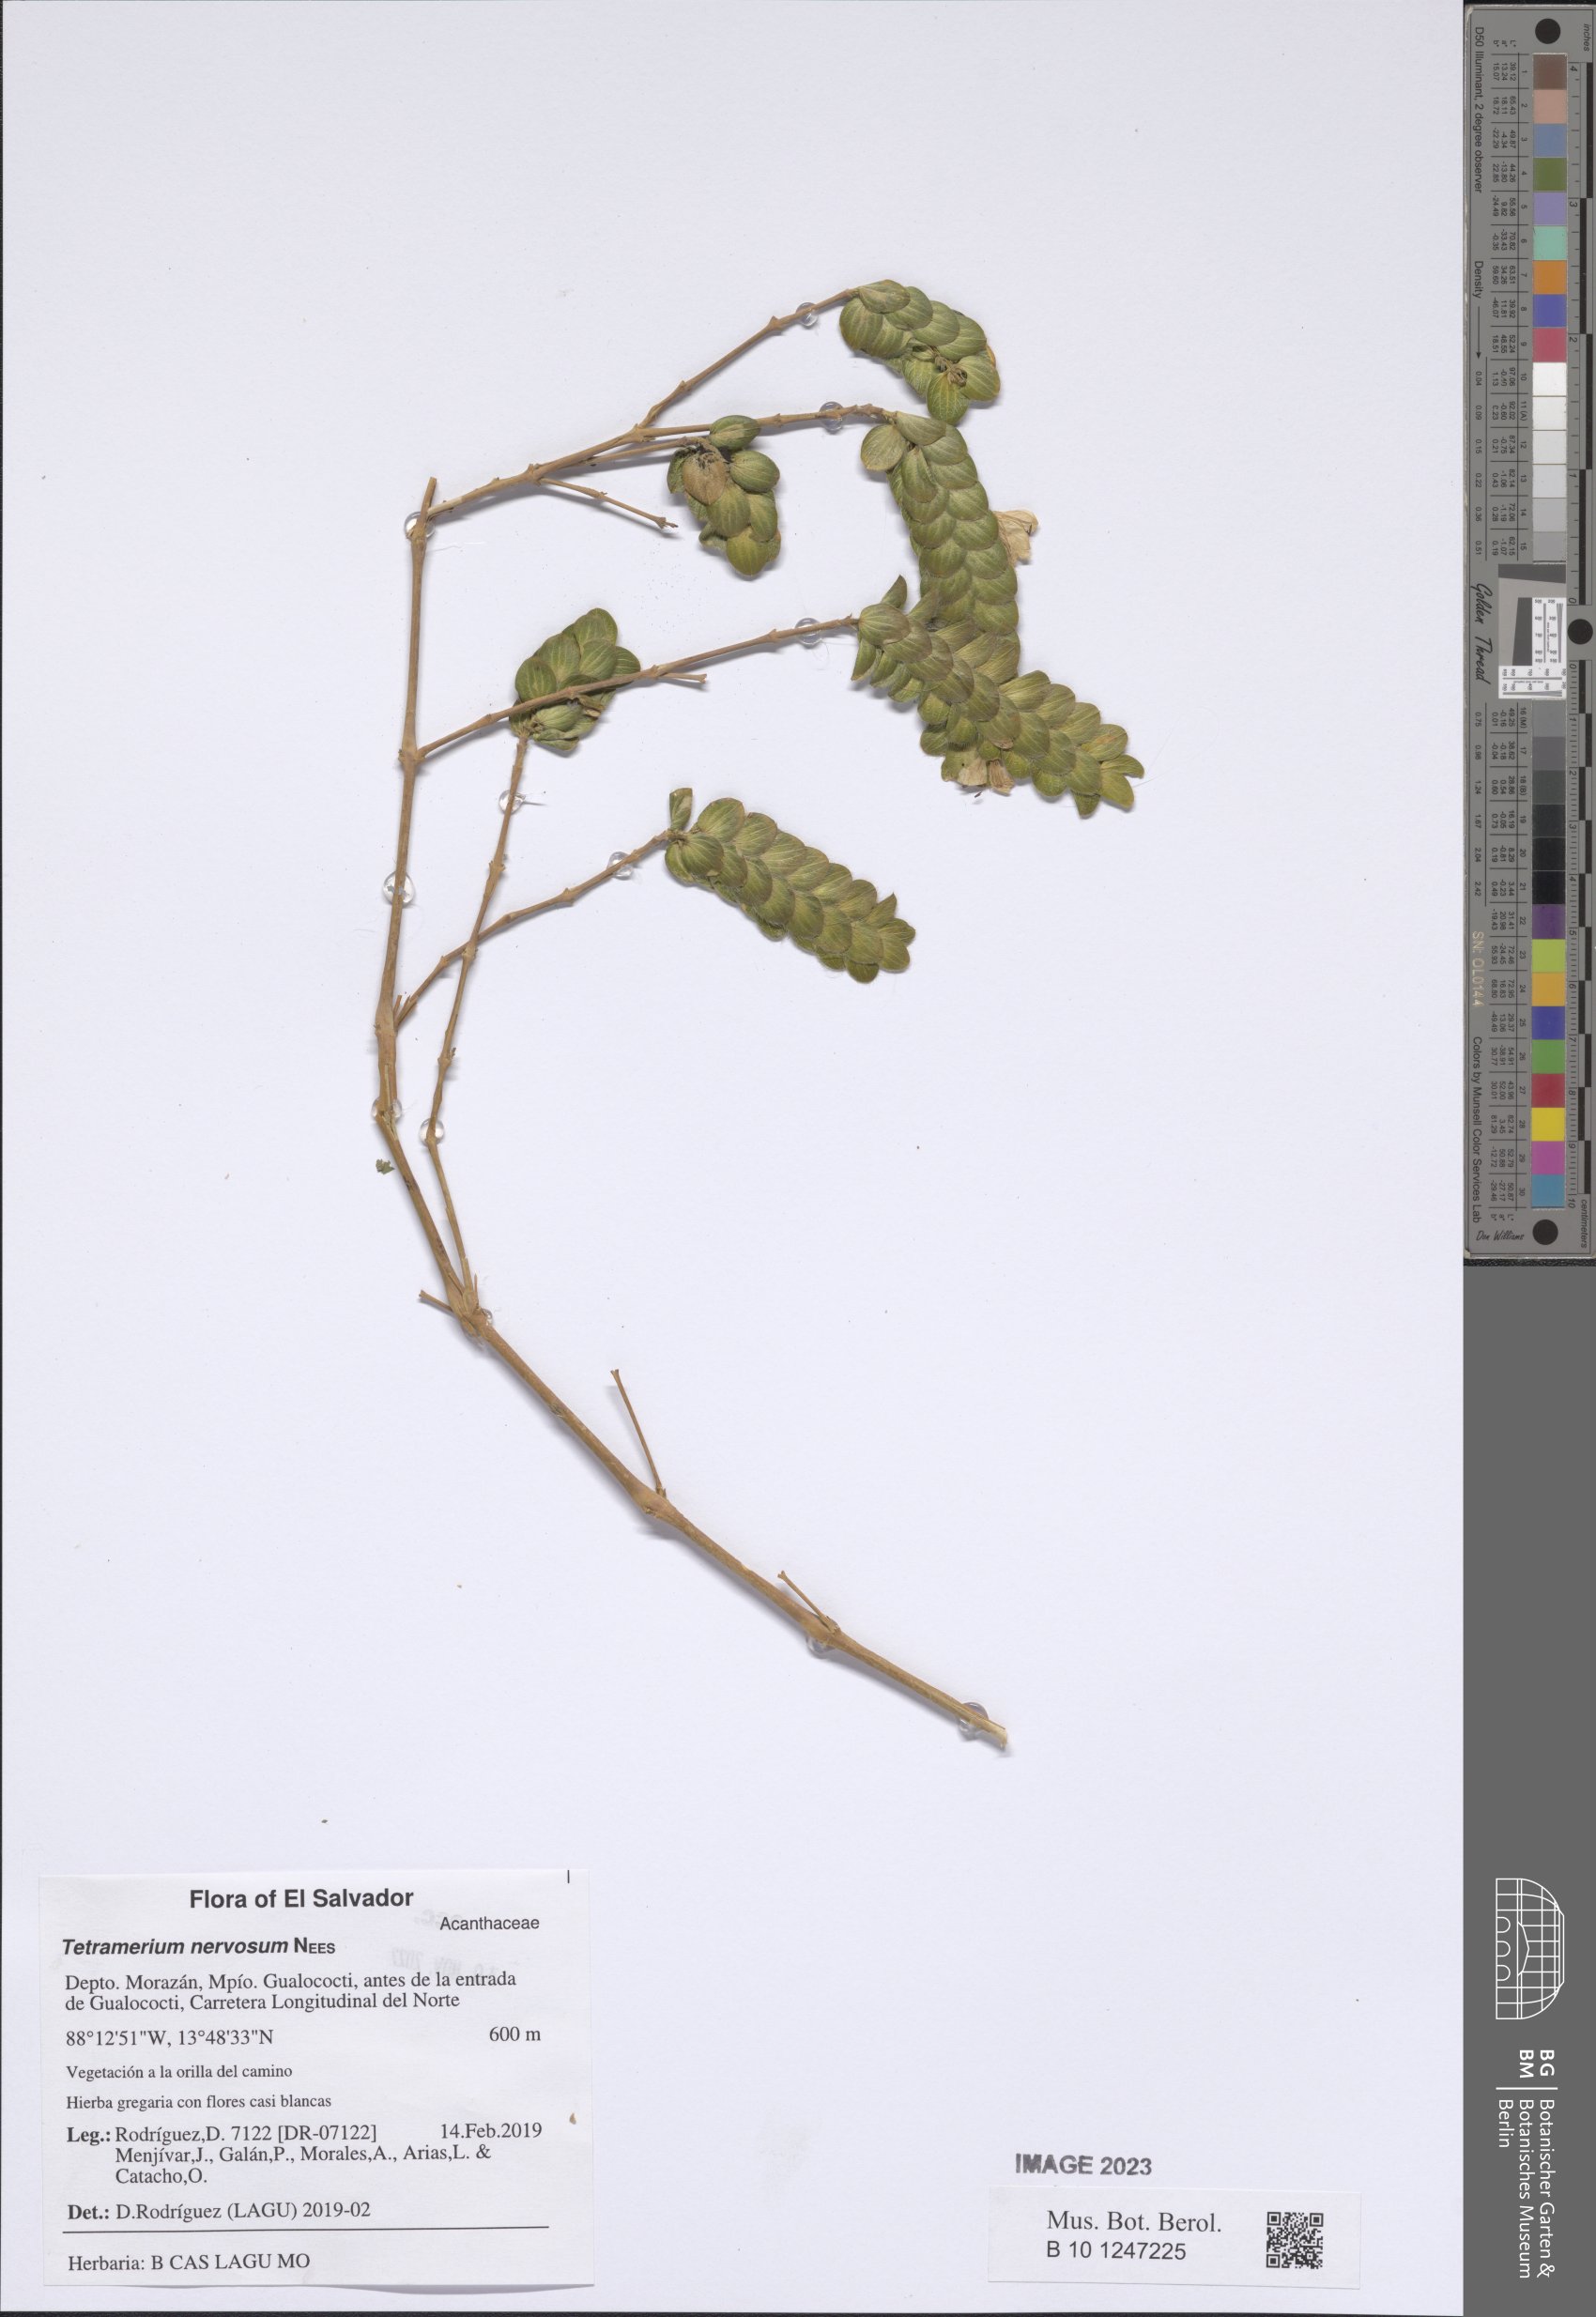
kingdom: Plantae
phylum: Tracheophyta
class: Magnoliopsida
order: Lamiales
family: Acanthaceae
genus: Tetramerium
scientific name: Tetramerium nervosum
